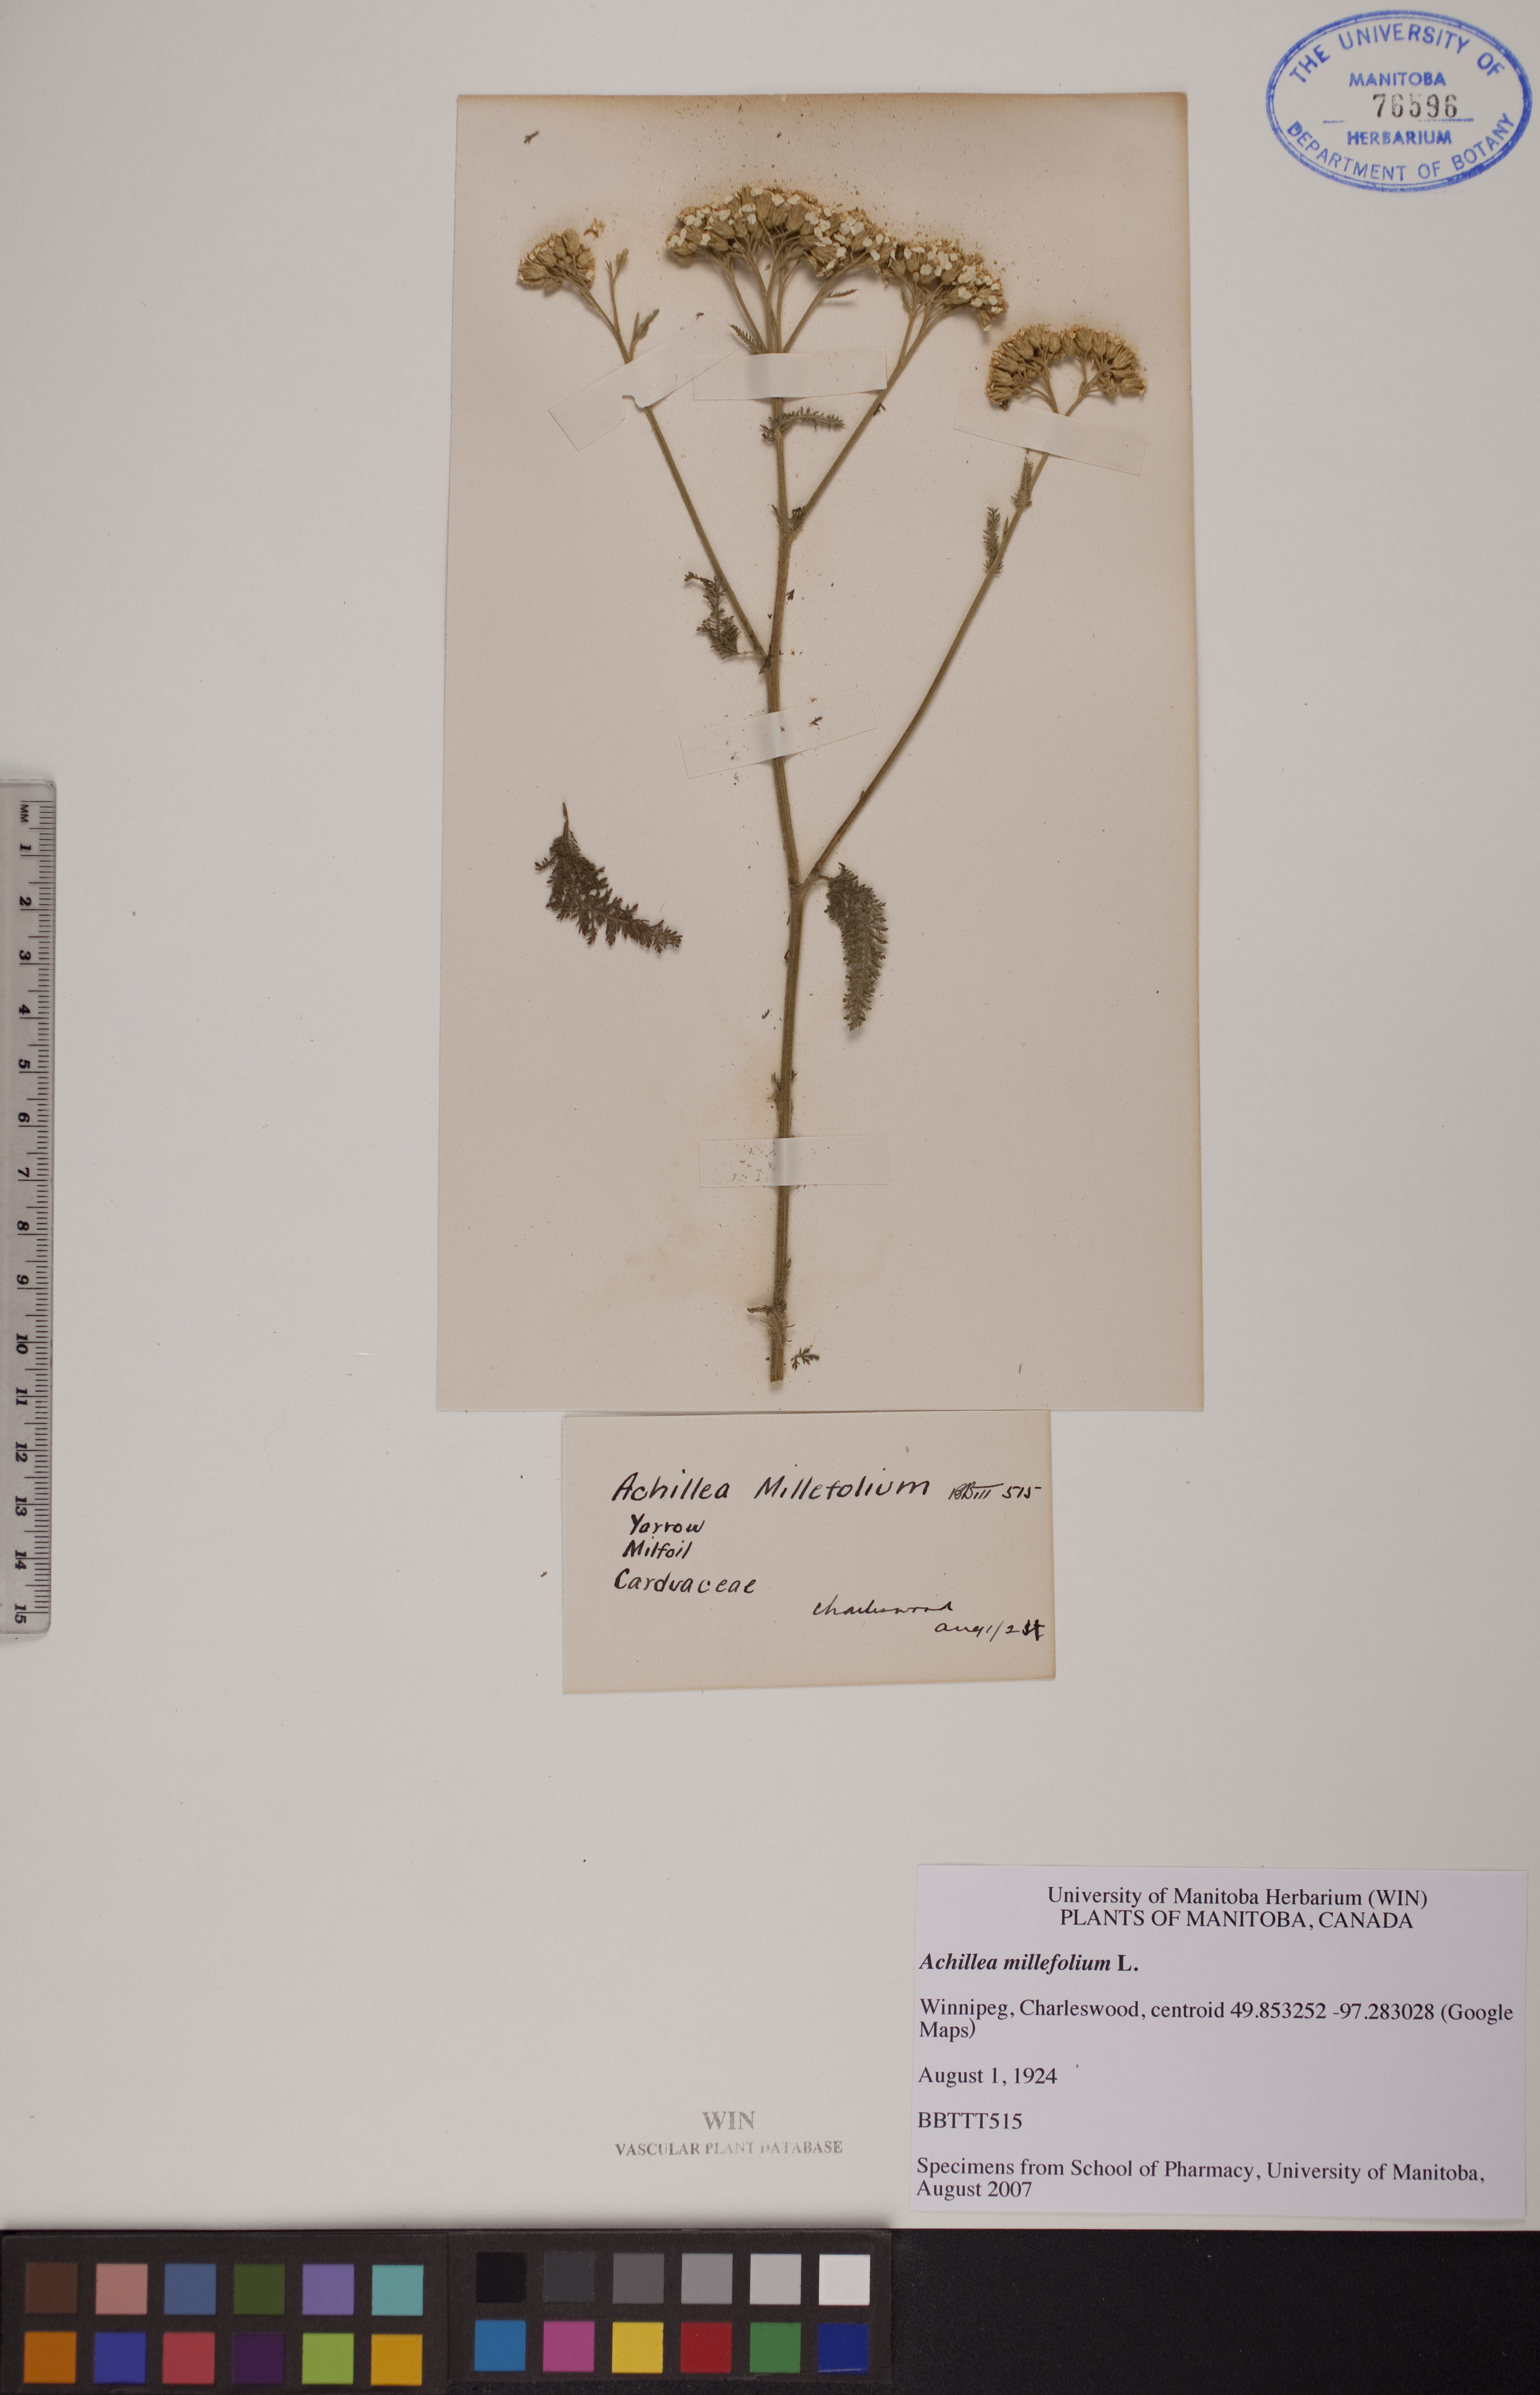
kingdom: Plantae
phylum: Tracheophyta
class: Magnoliopsida
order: Asterales
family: Asteraceae
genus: Achillea
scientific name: Achillea millefolium
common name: Yarrow
